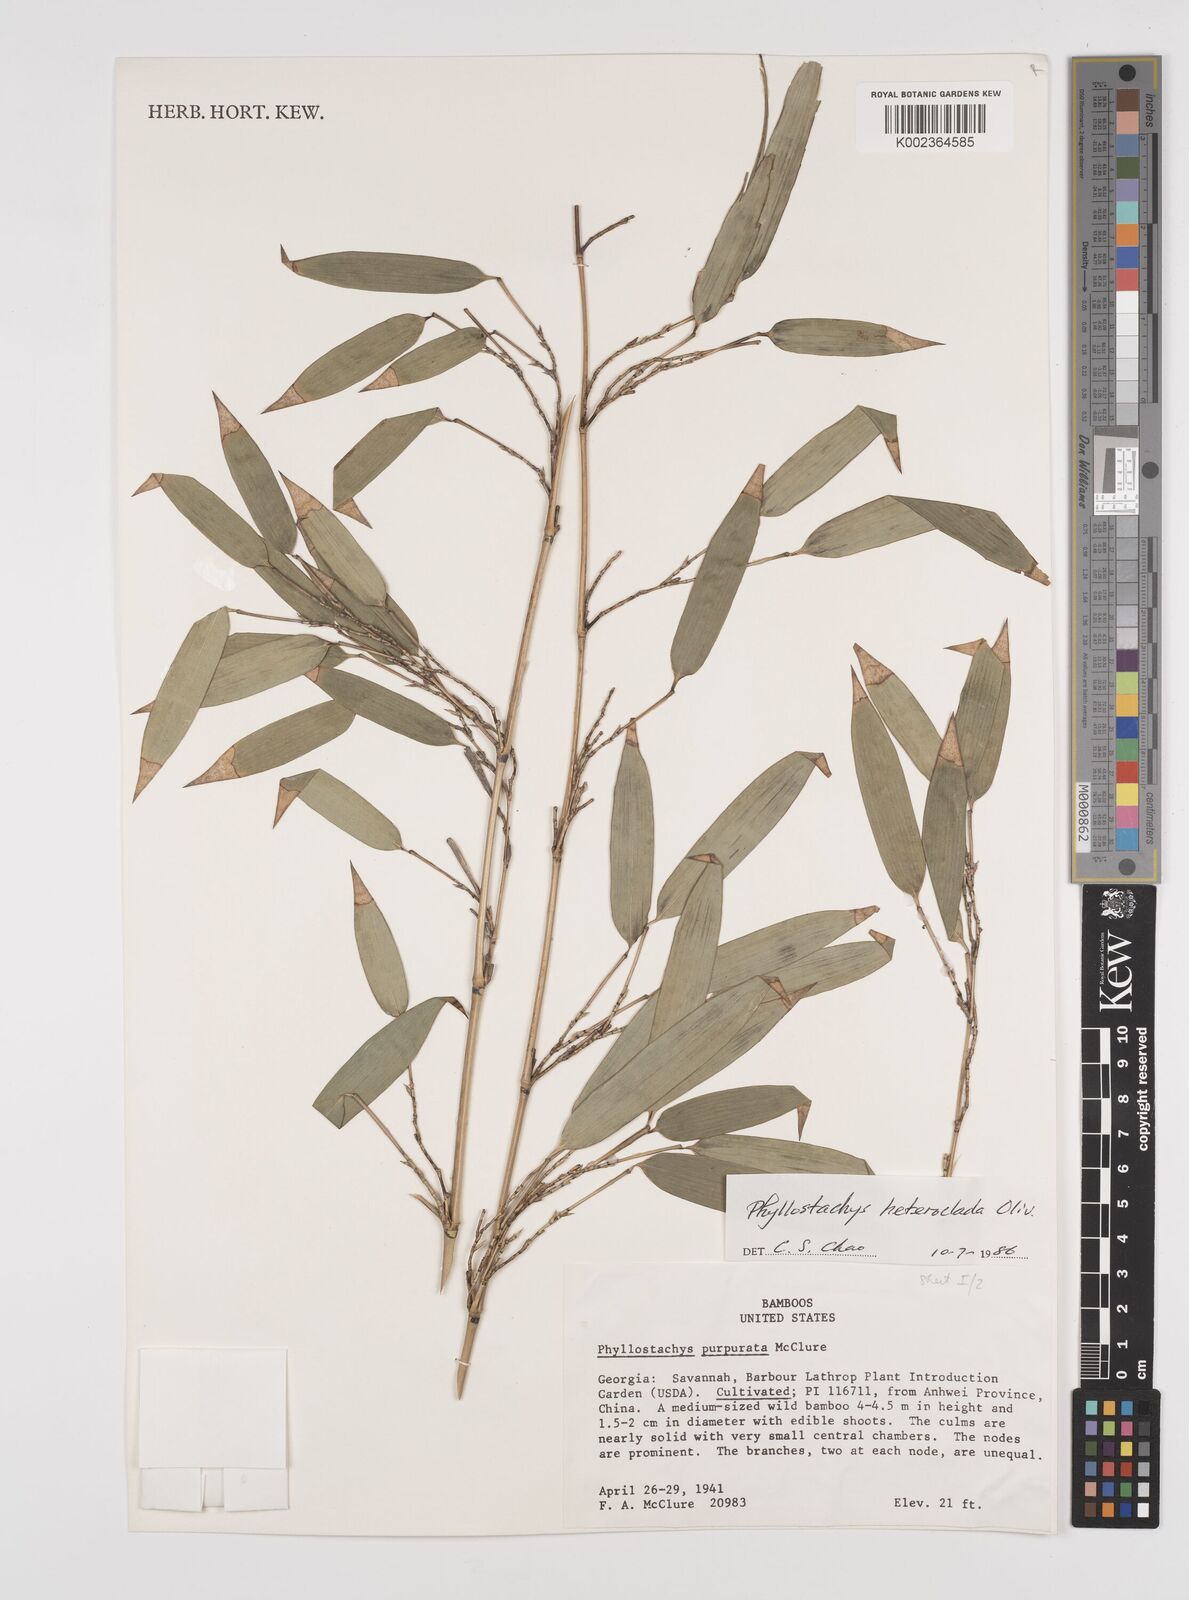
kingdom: Plantae
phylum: Tracheophyta
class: Liliopsida
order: Poales
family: Poaceae
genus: Phyllostachys
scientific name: Phyllostachys heteroclada
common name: Fishscale bamboo
